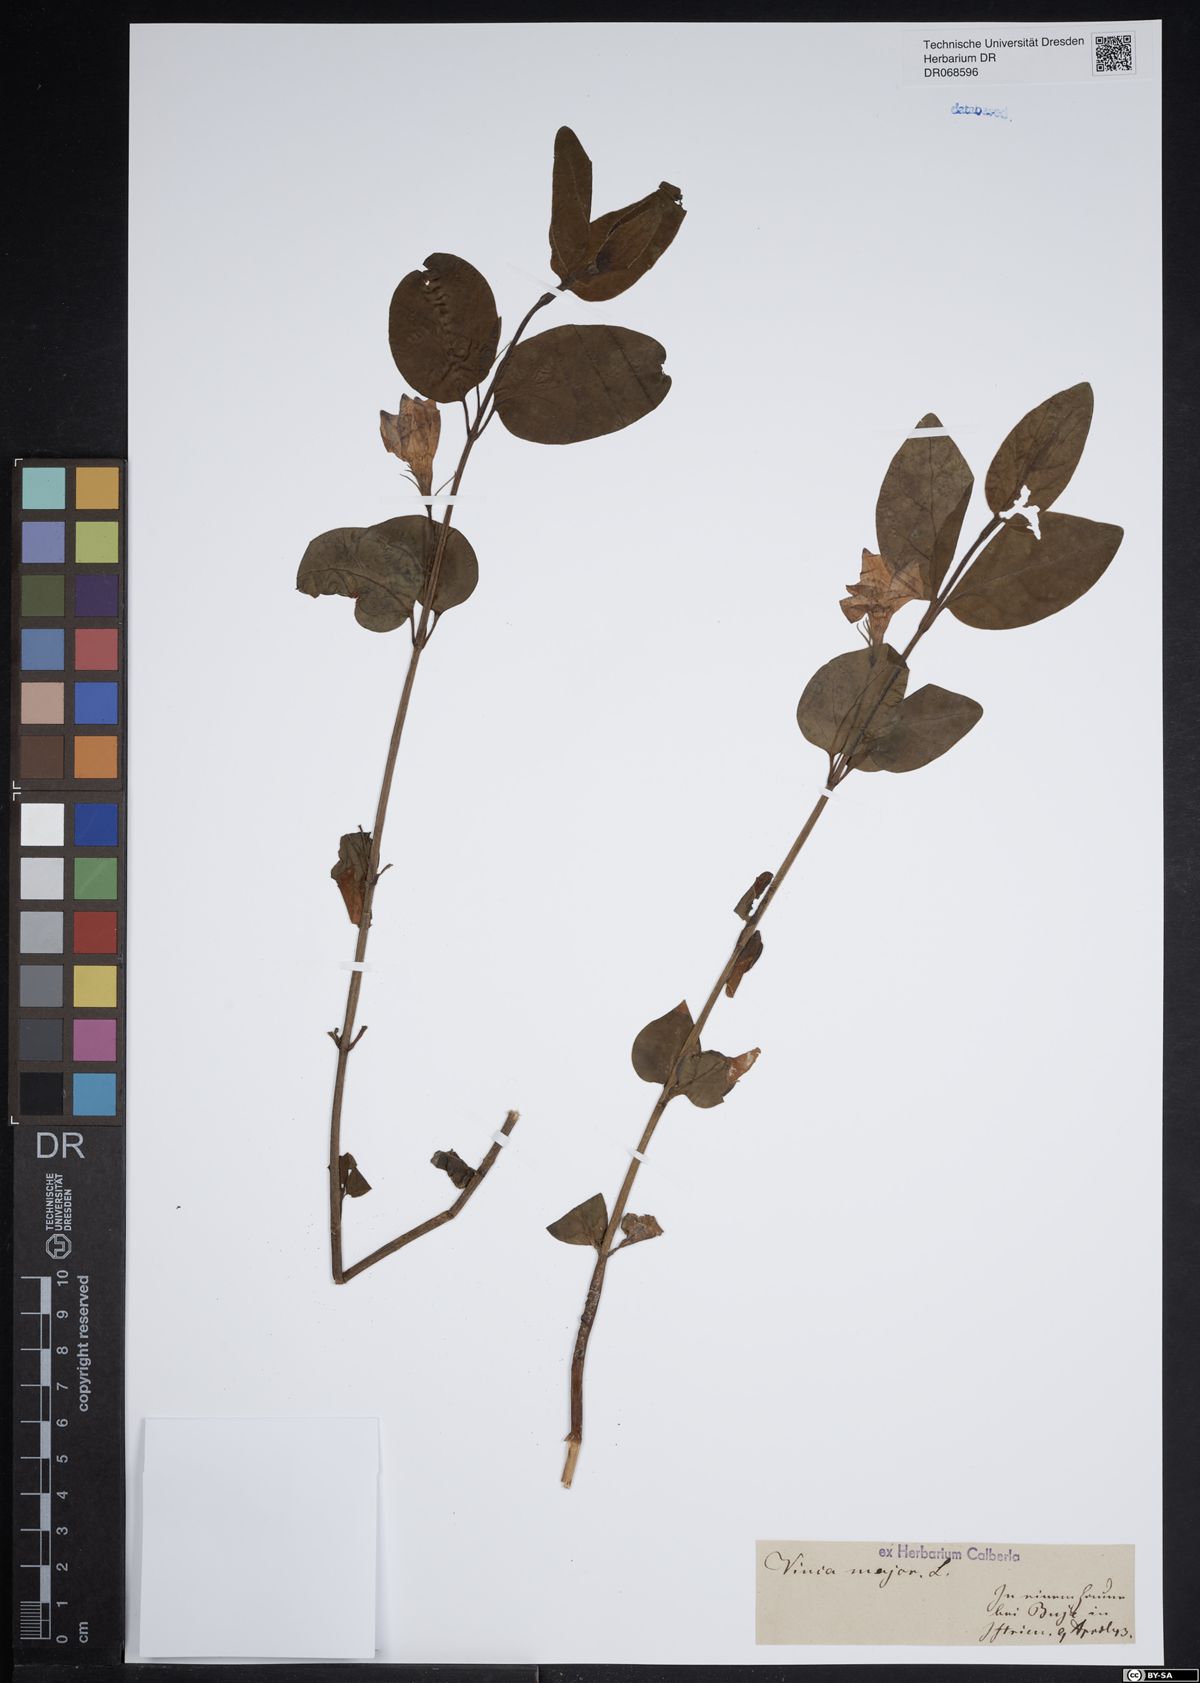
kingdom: Plantae
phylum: Tracheophyta
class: Magnoliopsida
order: Gentianales
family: Apocynaceae
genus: Vinca
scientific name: Vinca major
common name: Greater periwinkle
